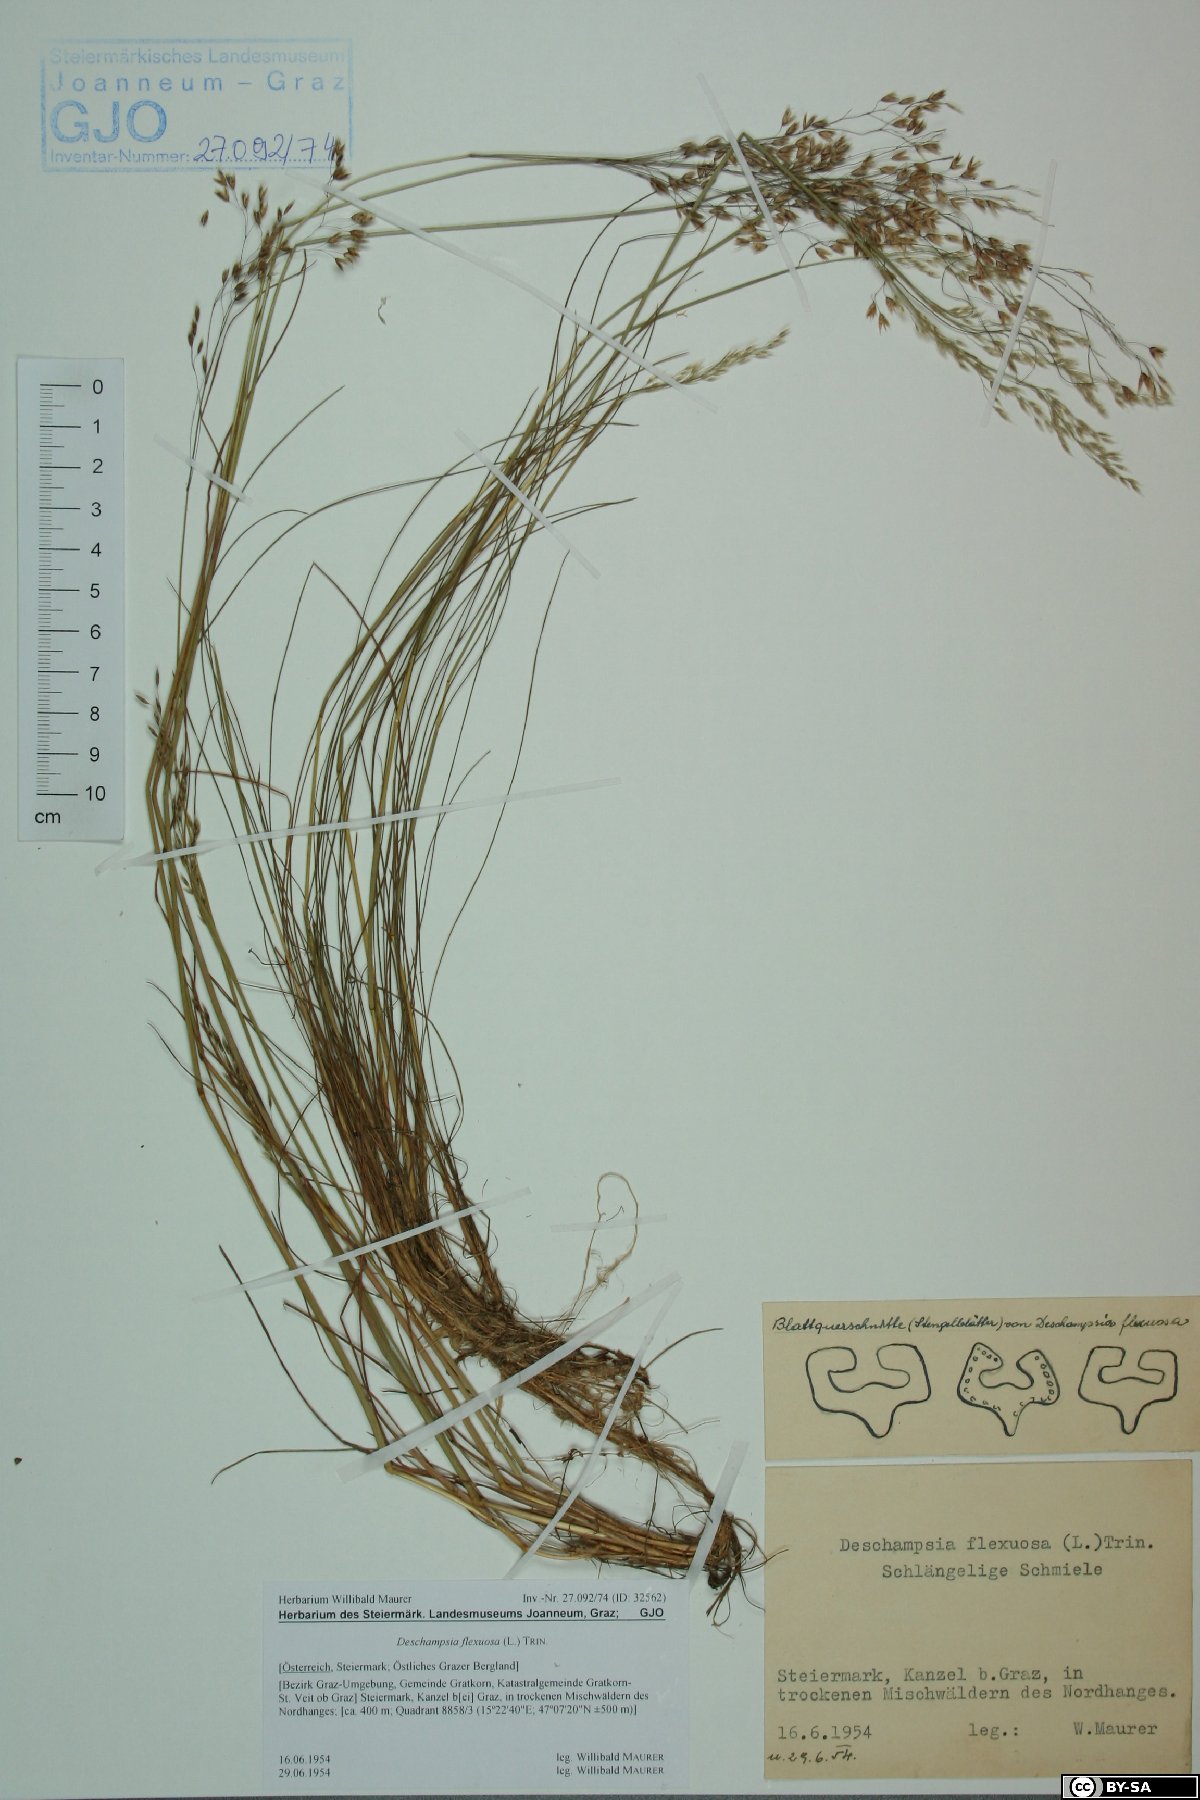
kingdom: Plantae
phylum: Tracheophyta
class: Liliopsida
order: Poales
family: Poaceae
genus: Avenella
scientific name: Avenella flexuosa
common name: Wavy hairgrass
